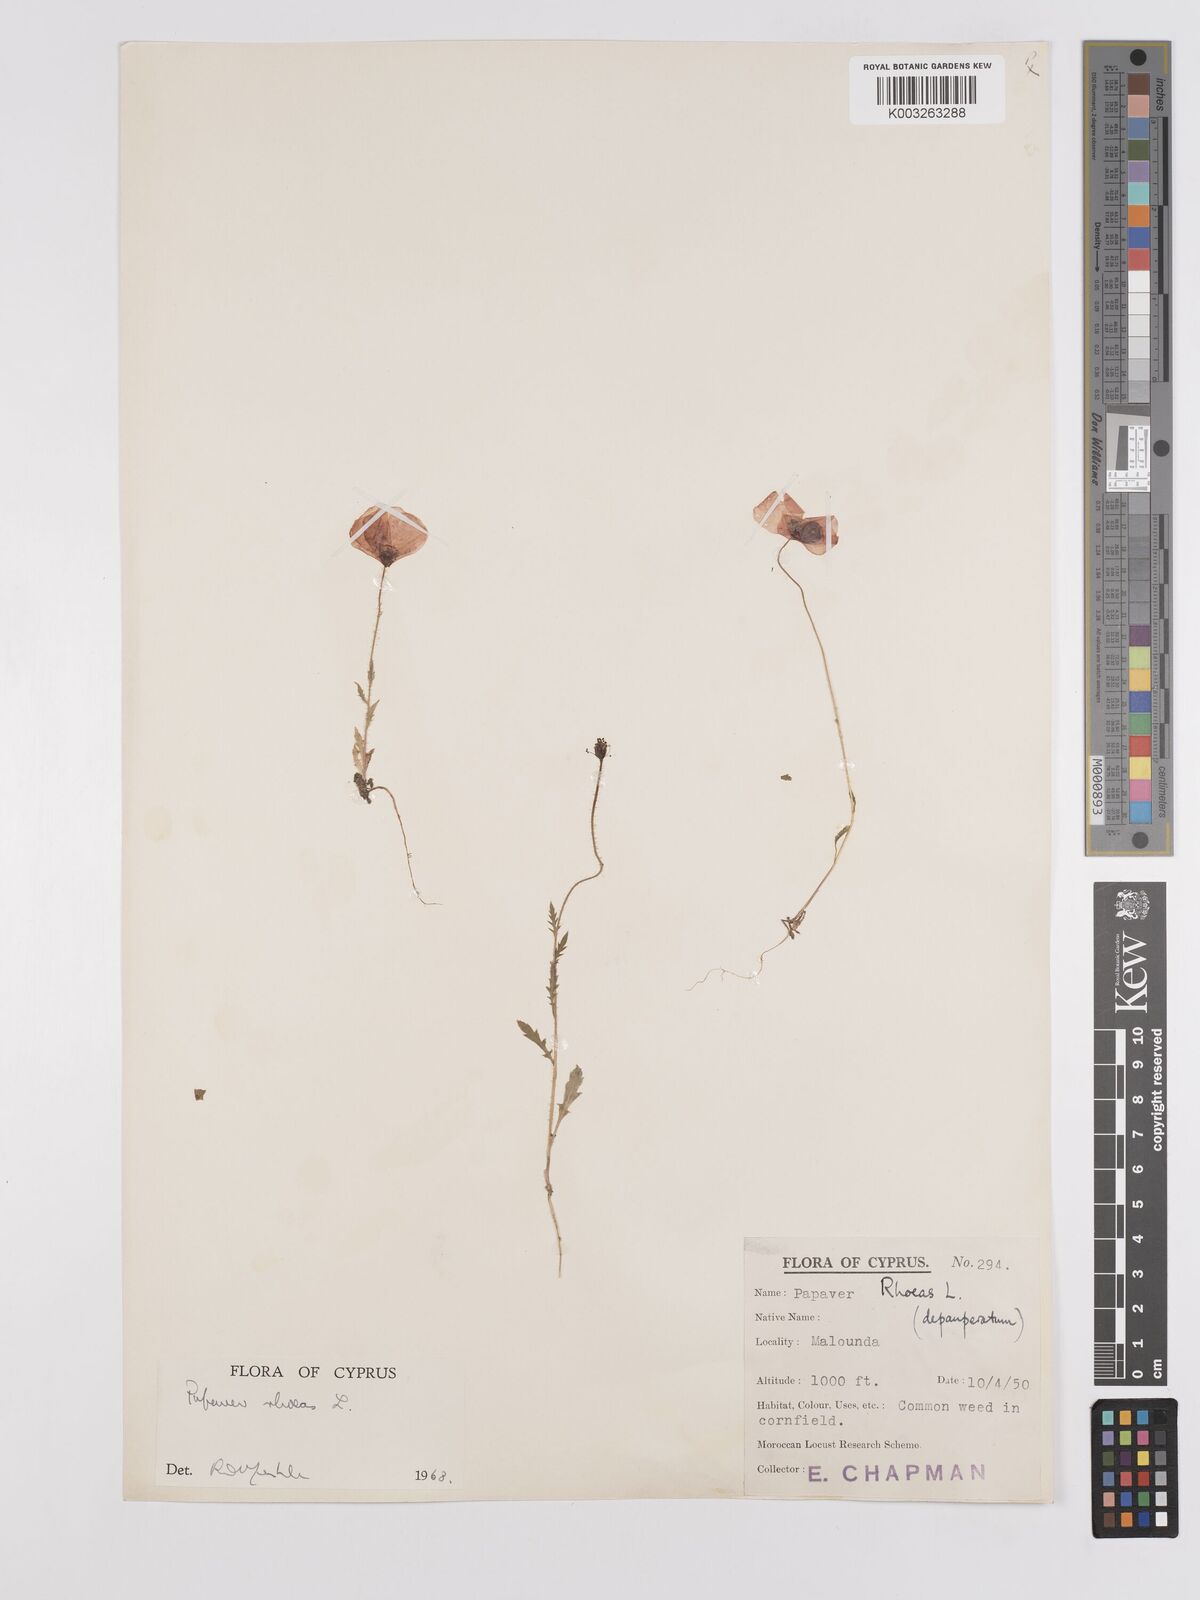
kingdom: Plantae
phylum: Tracheophyta
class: Magnoliopsida
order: Ranunculales
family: Papaveraceae
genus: Papaver
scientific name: Papaver rhoeas
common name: Corn poppy
